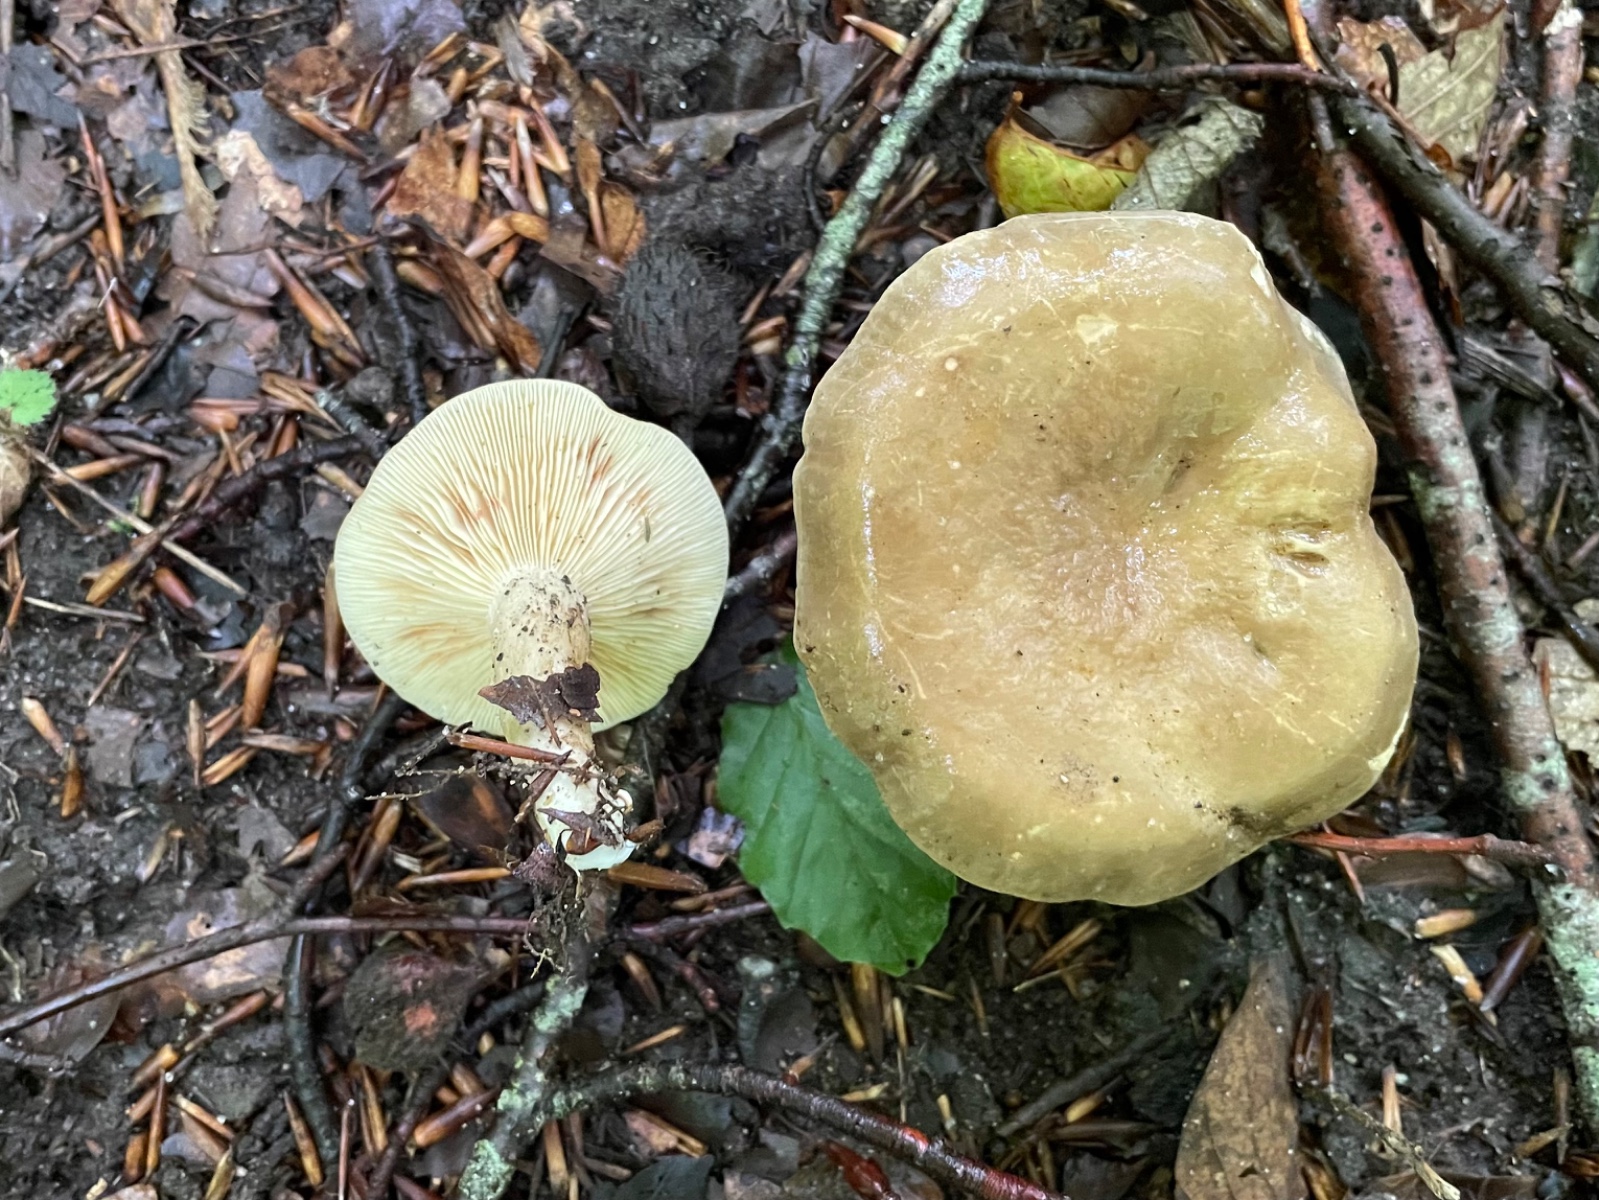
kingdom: Fungi
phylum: Basidiomycota
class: Agaricomycetes
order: Russulales
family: Russulaceae
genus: Lactarius
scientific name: Lactarius pterosporus
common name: vingesporet mælkehat
